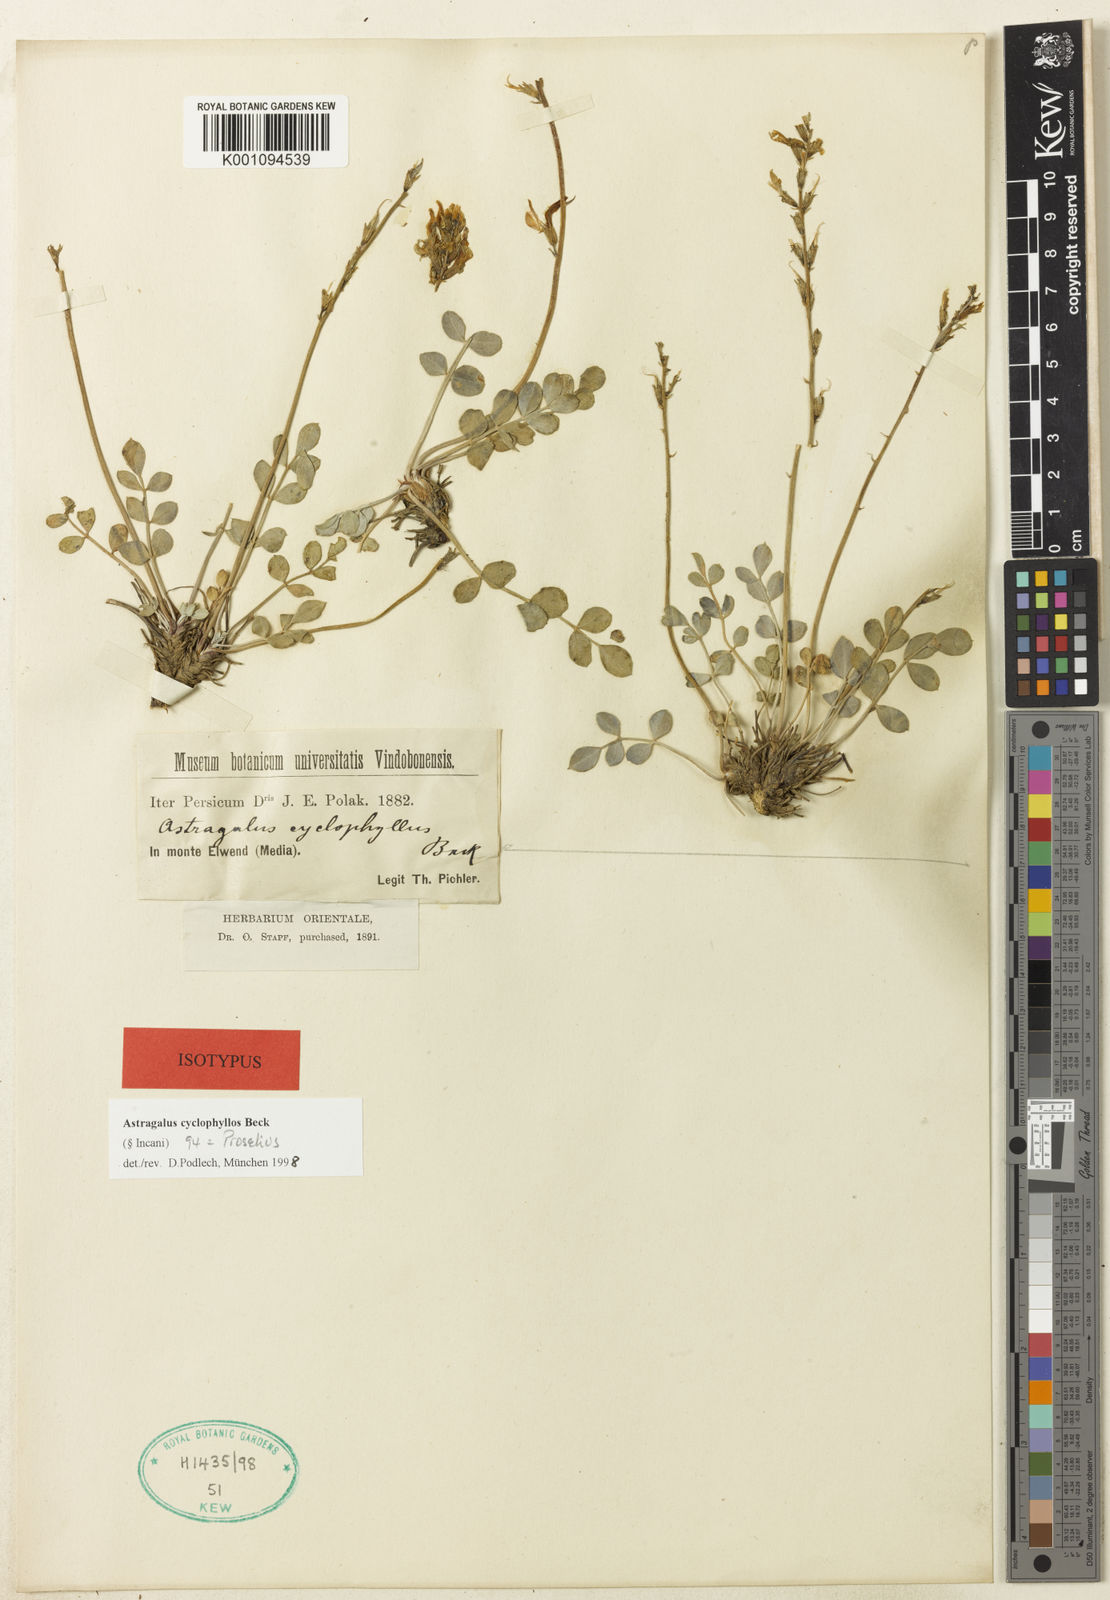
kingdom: Plantae
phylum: Tracheophyta
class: Magnoliopsida
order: Fabales
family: Fabaceae
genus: Astragalus
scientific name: Astragalus
